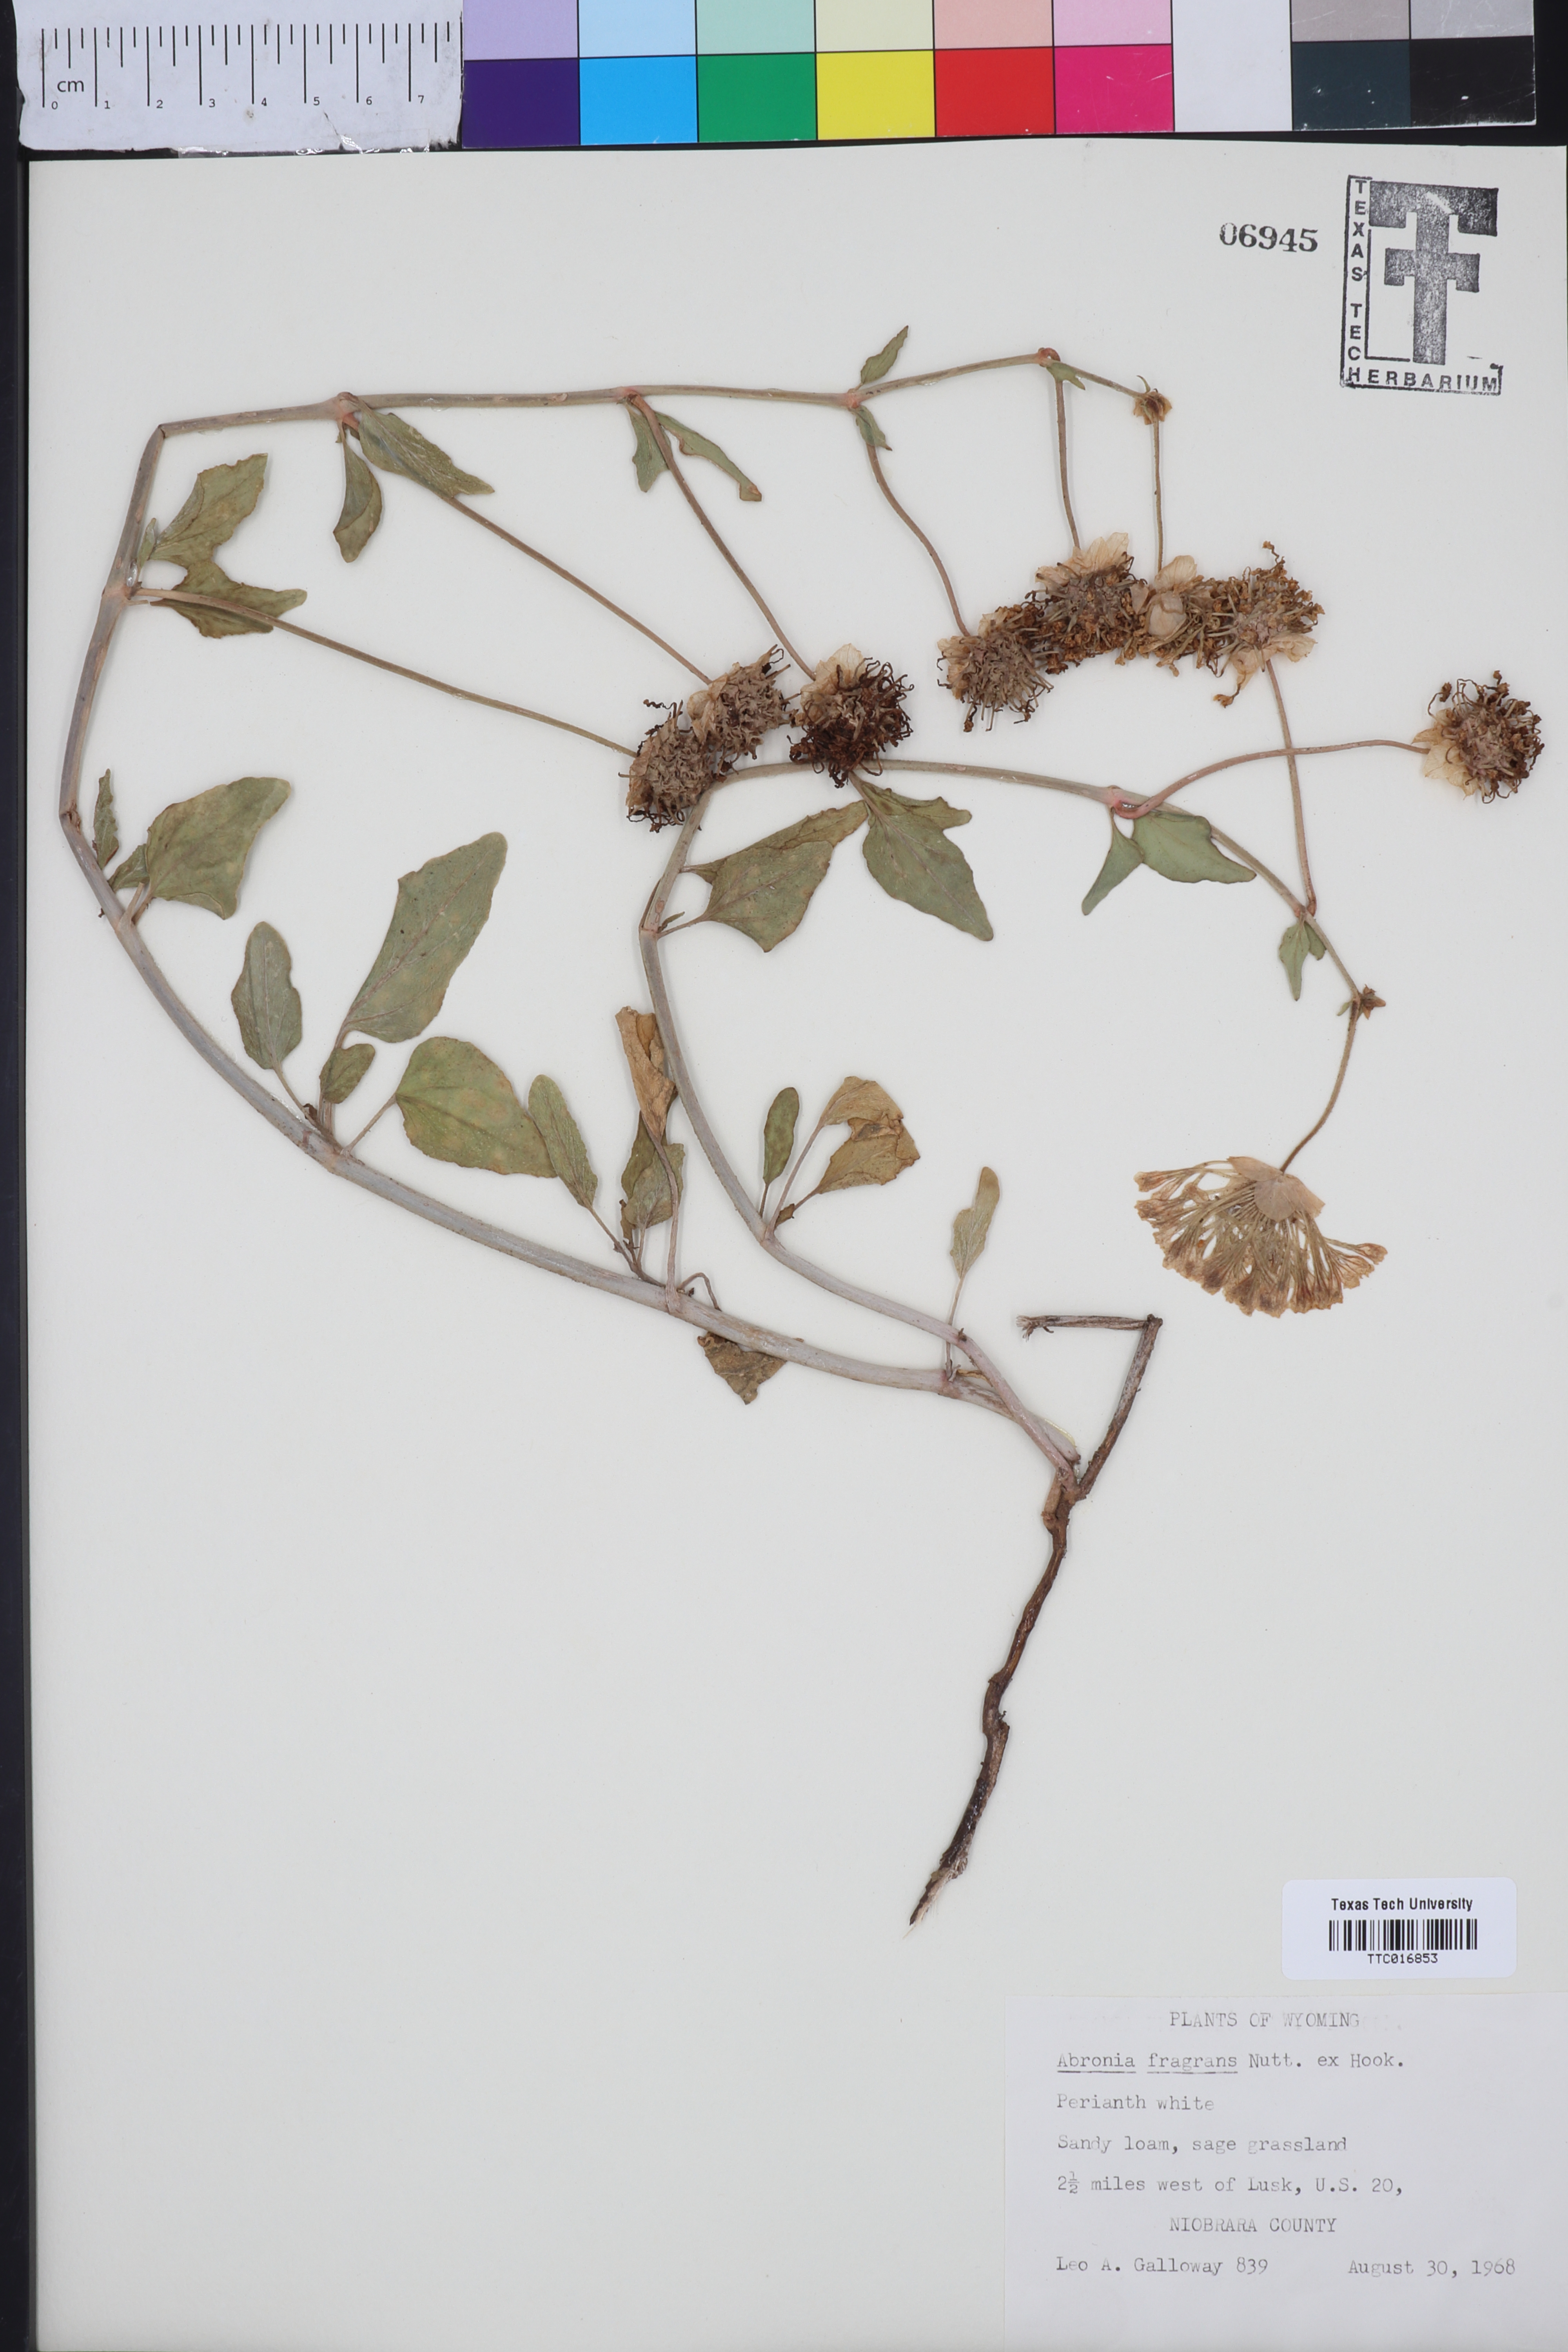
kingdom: Plantae
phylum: Tracheophyta
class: Magnoliopsida
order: Caryophyllales
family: Nyctaginaceae
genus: Abronia
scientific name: Abronia fragrans
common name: Fragrant sand-verbena
